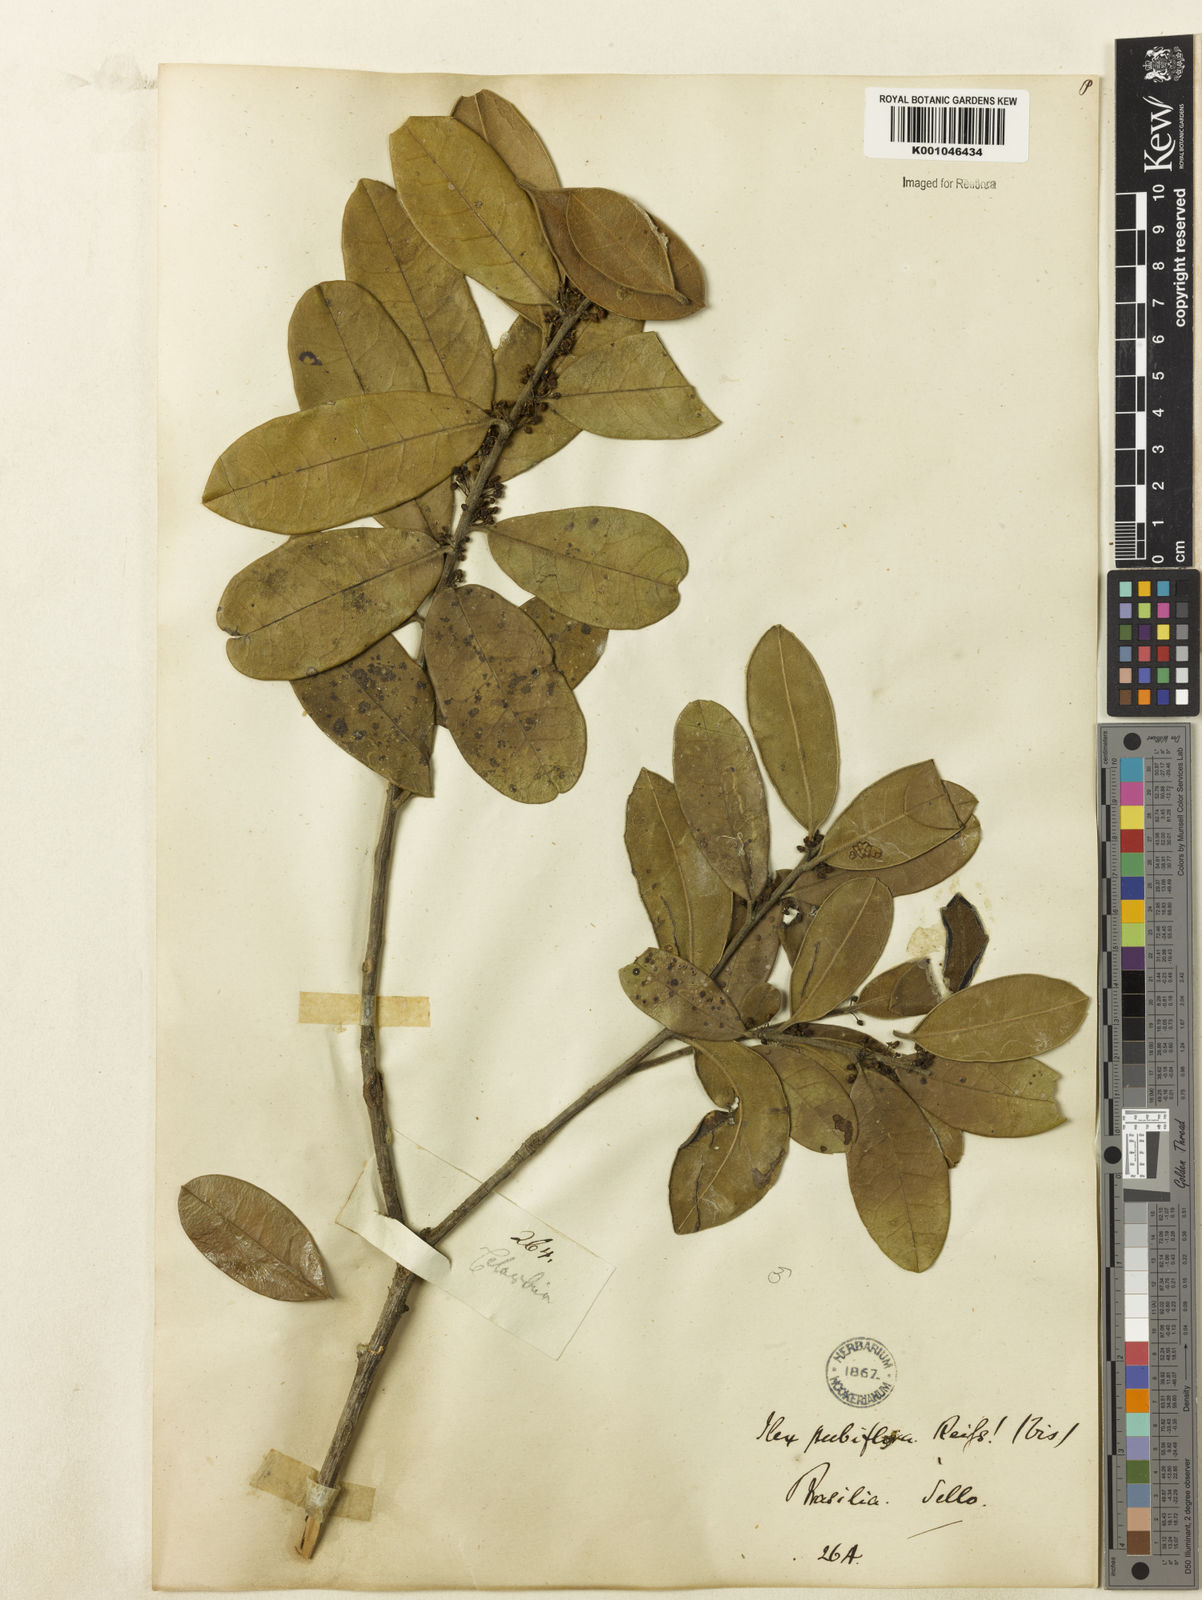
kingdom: Plantae
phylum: Tracheophyta
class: Magnoliopsida
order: Aquifoliales
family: Aquifoliaceae
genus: Ilex
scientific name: Ilex brasiliensis
